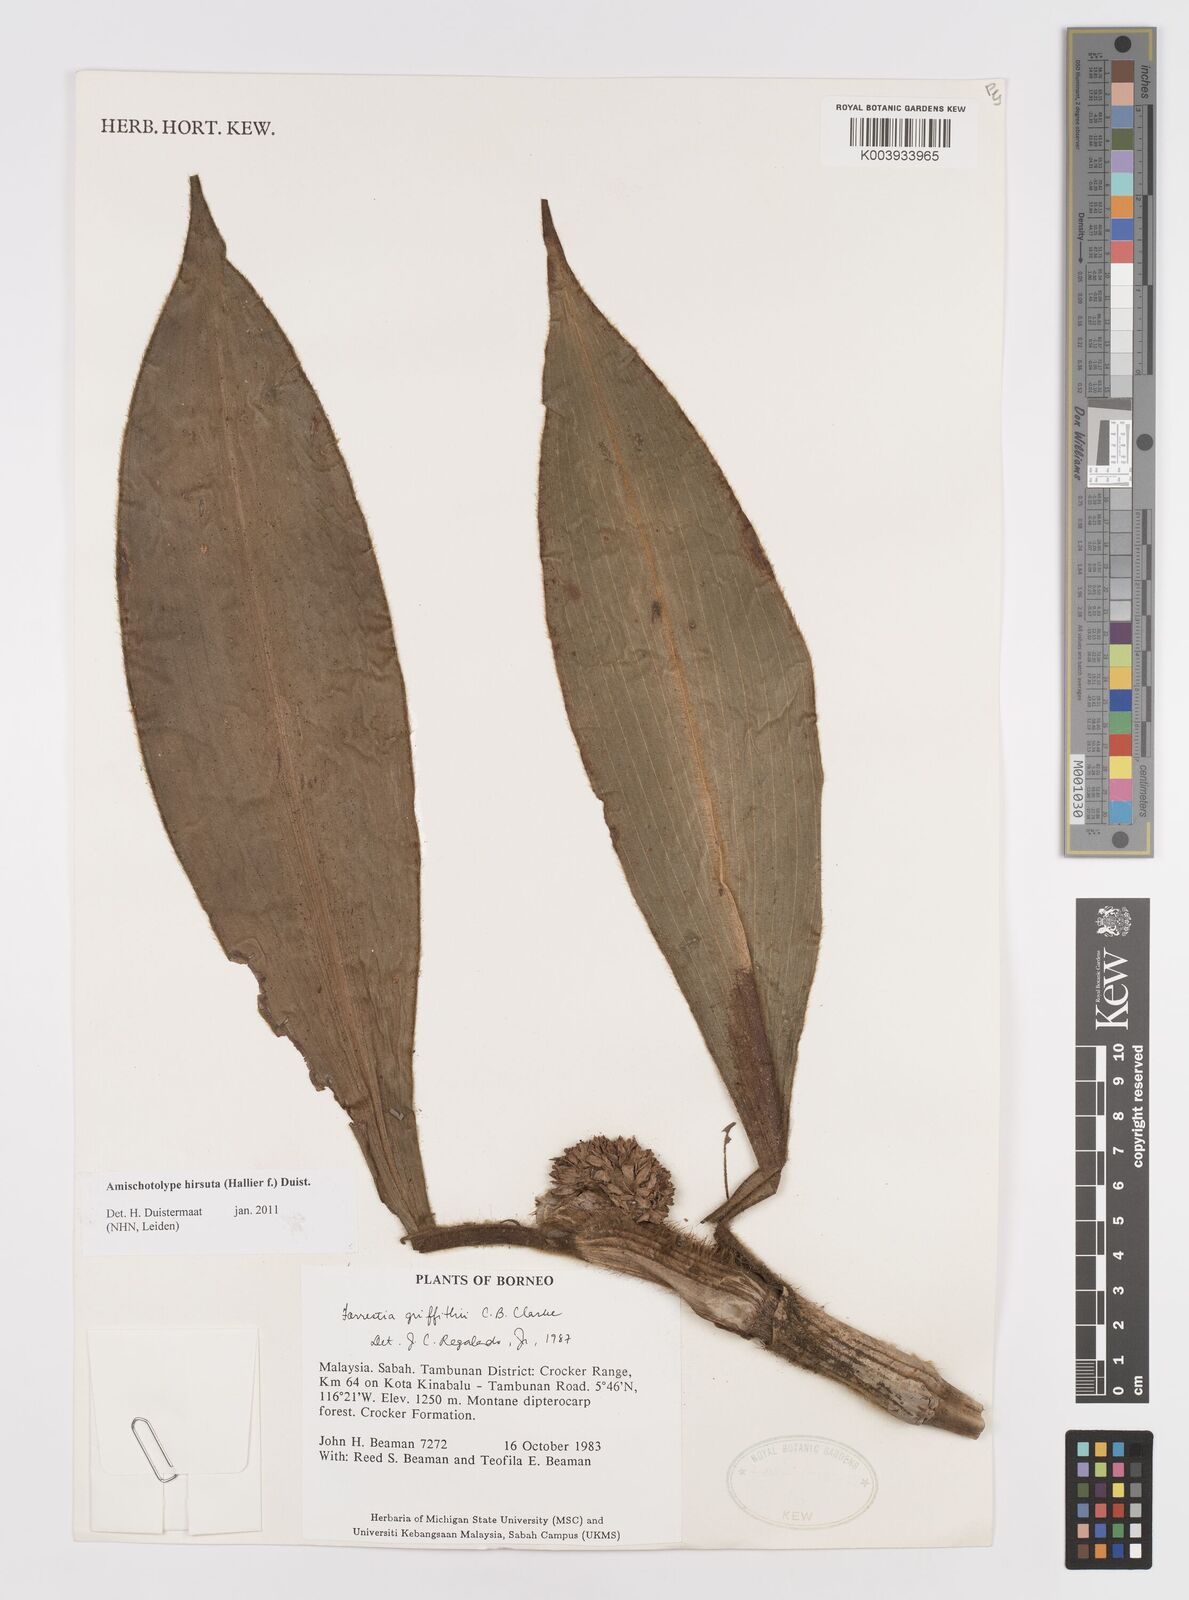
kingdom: Plantae
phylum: Tracheophyta
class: Liliopsida
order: Commelinales
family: Commelinaceae
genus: Amischotolype
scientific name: Amischotolype hirsuta
